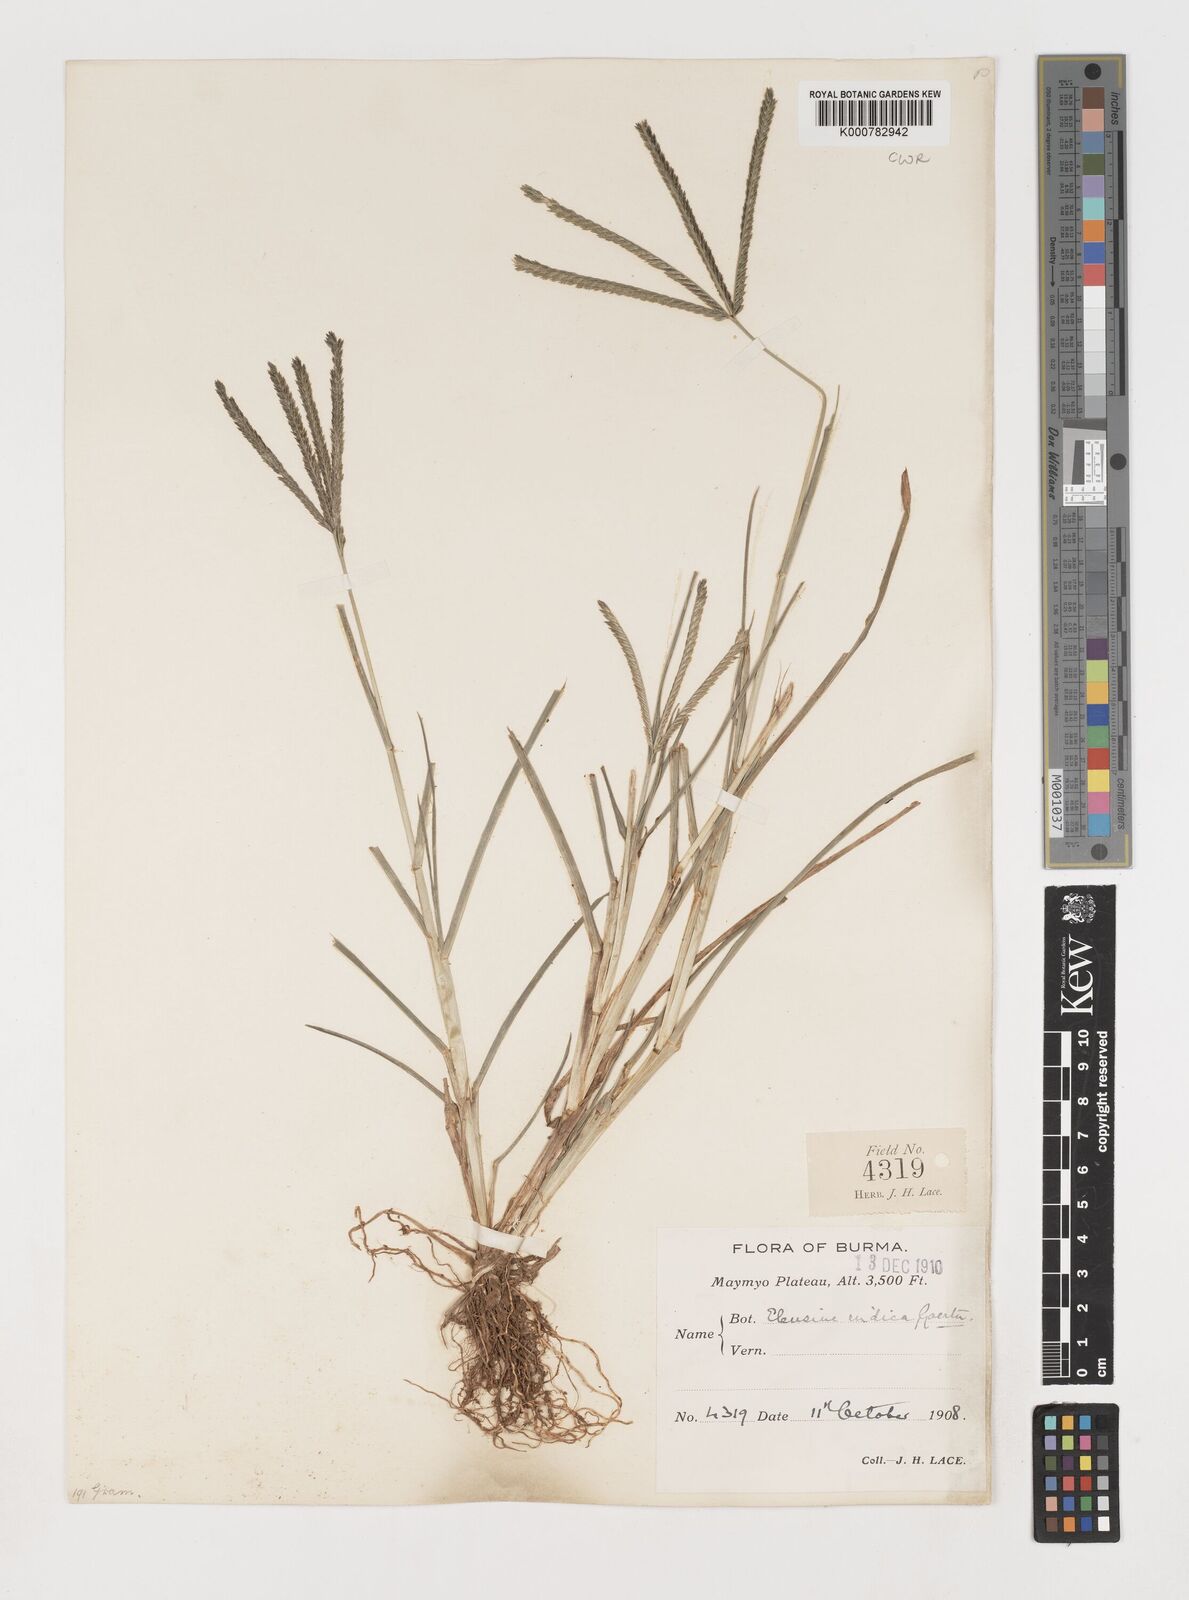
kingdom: Plantae
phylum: Tracheophyta
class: Liliopsida
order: Poales
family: Poaceae
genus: Eleusine
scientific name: Eleusine indica
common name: Yard-grass
